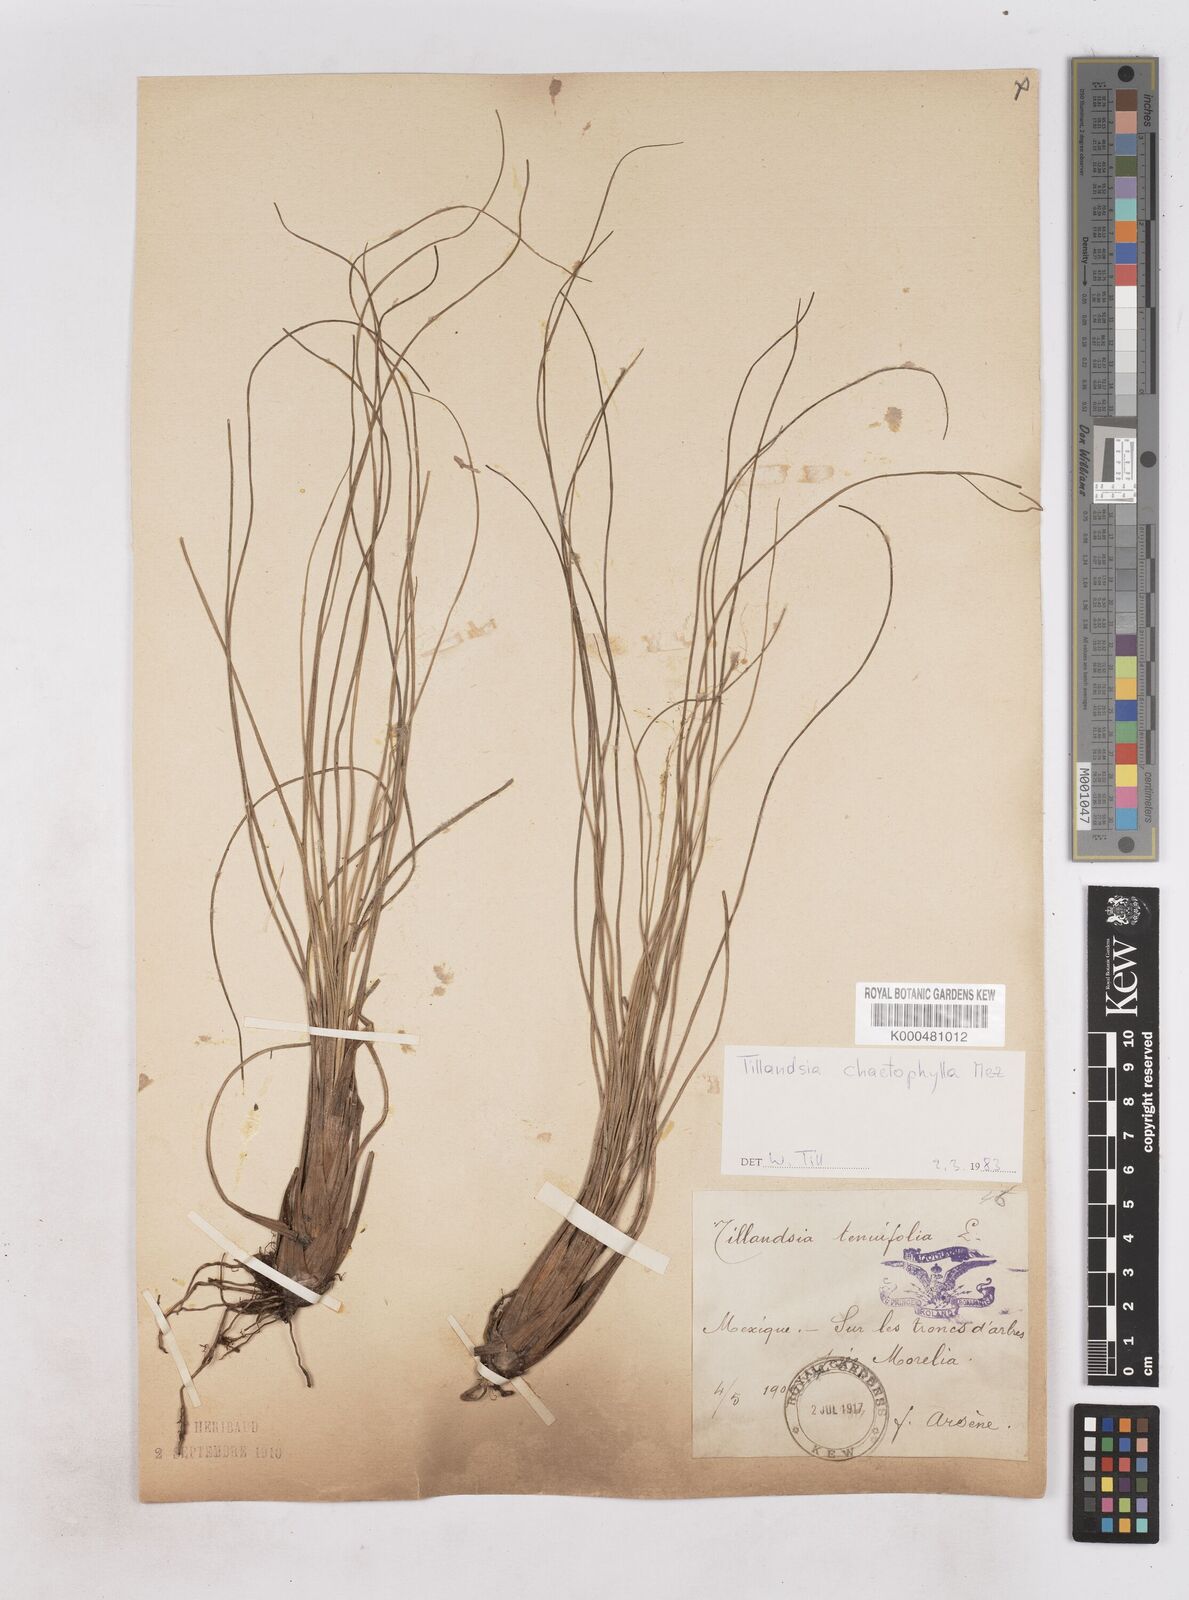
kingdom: Plantae
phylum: Tracheophyta
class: Liliopsida
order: Poales
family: Bromeliaceae
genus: Tillandsia
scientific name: Tillandsia sessemocinoi
